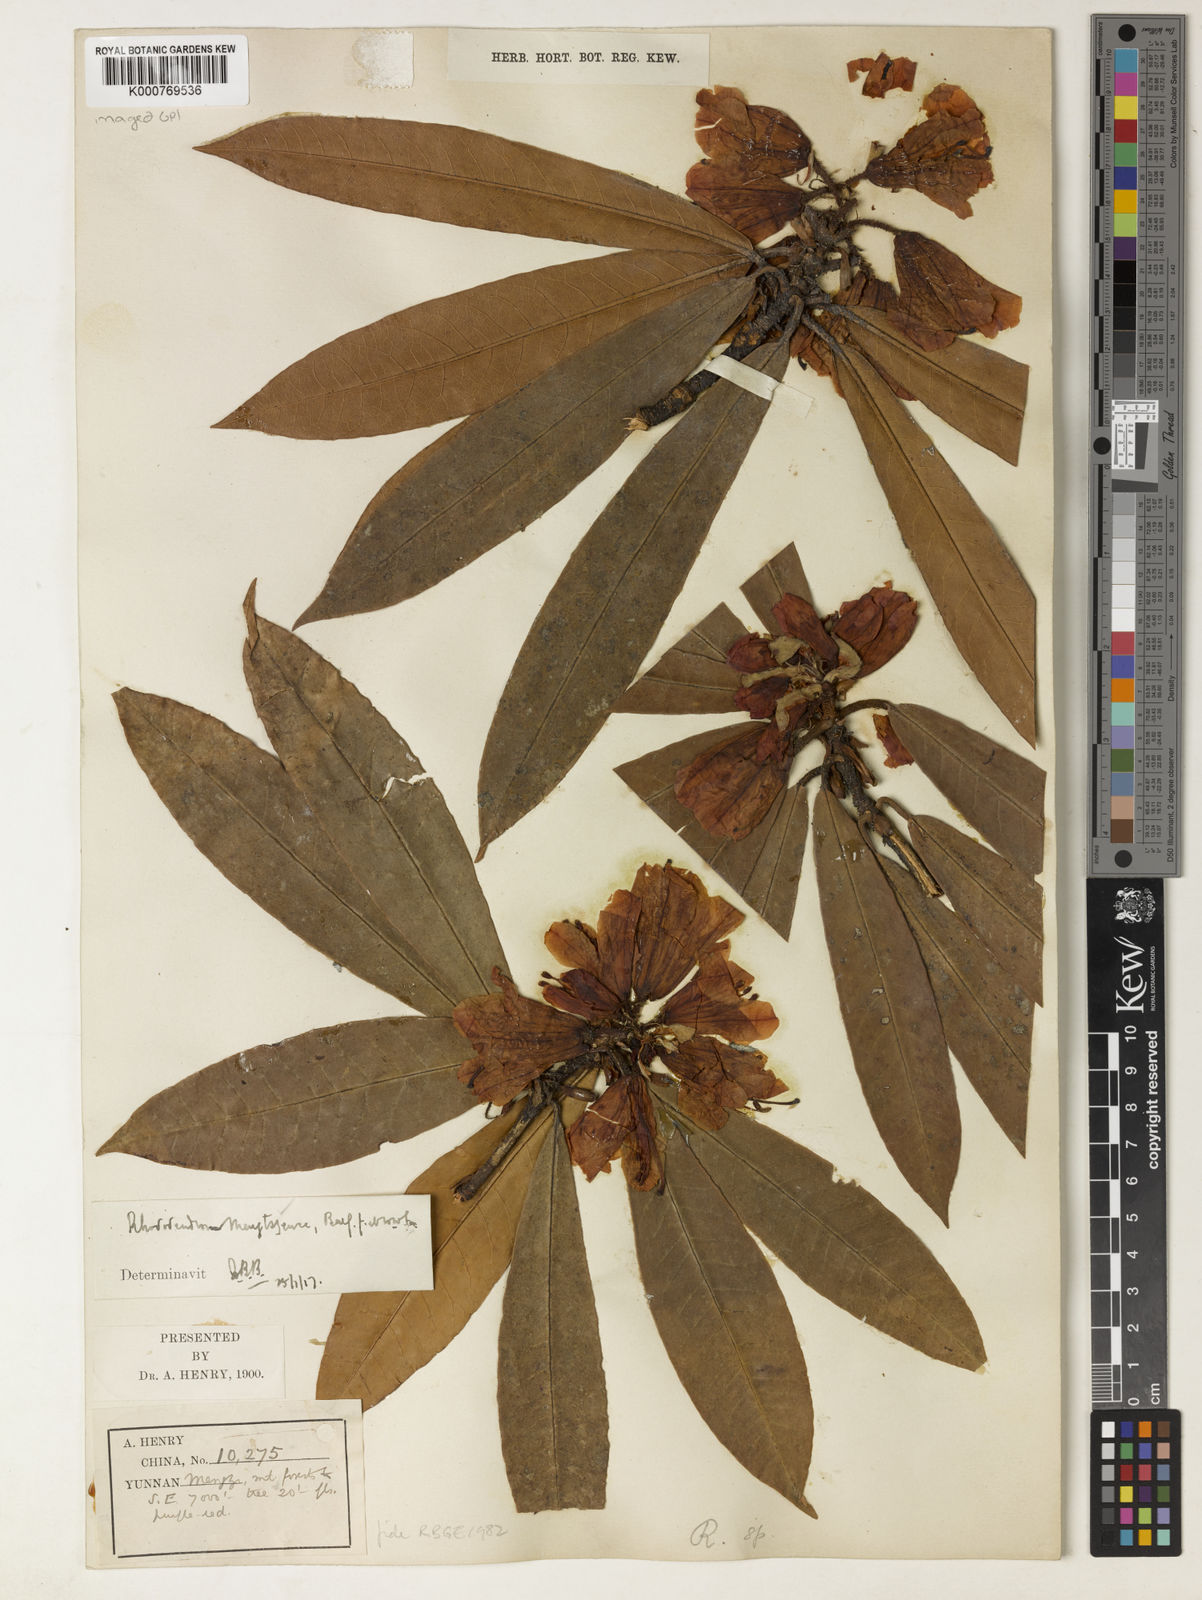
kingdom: Plantae
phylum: Tracheophyta
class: Magnoliopsida
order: Ericales
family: Ericaceae
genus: Rhododendron
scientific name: Rhododendron mengtszense
